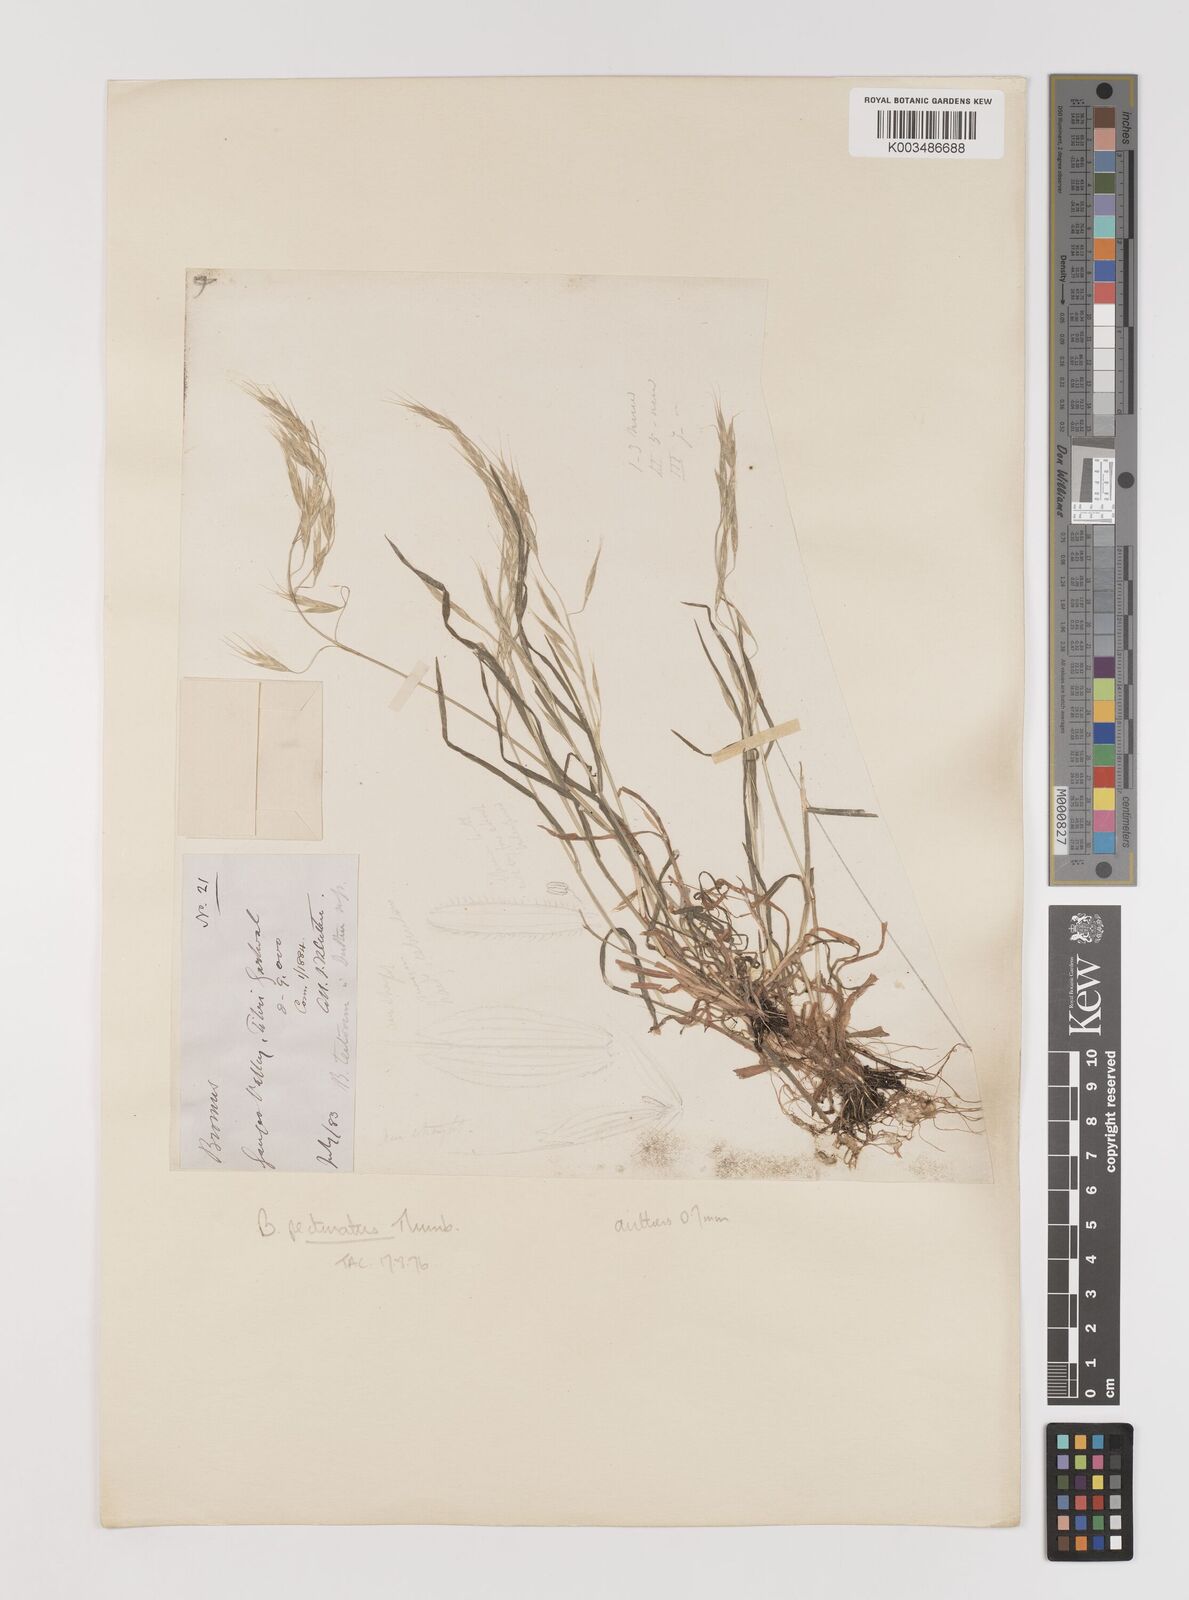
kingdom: Plantae
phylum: Tracheophyta
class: Liliopsida
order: Poales
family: Poaceae
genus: Bromus
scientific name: Bromus pectinatus
